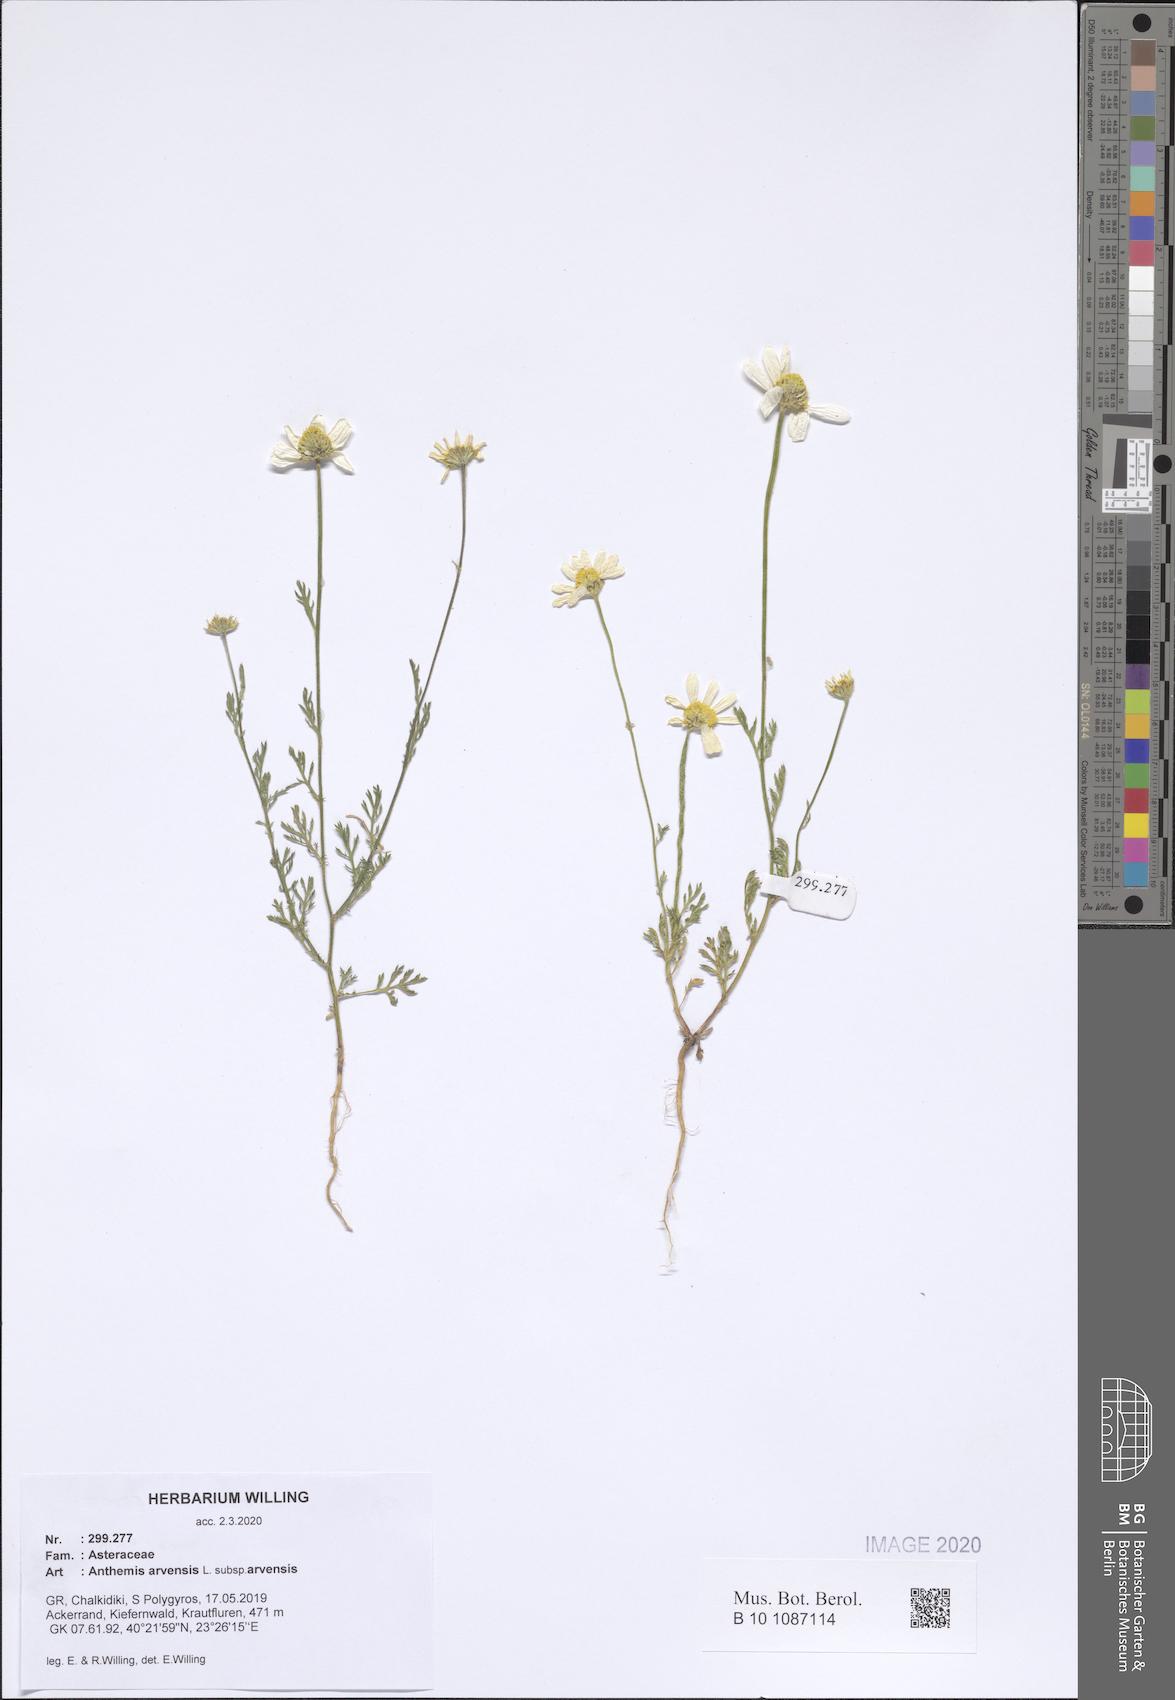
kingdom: Plantae
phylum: Tracheophyta
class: Magnoliopsida
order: Asterales
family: Asteraceae
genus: Anthemis
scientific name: Anthemis arvensis
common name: Corn chamomile
